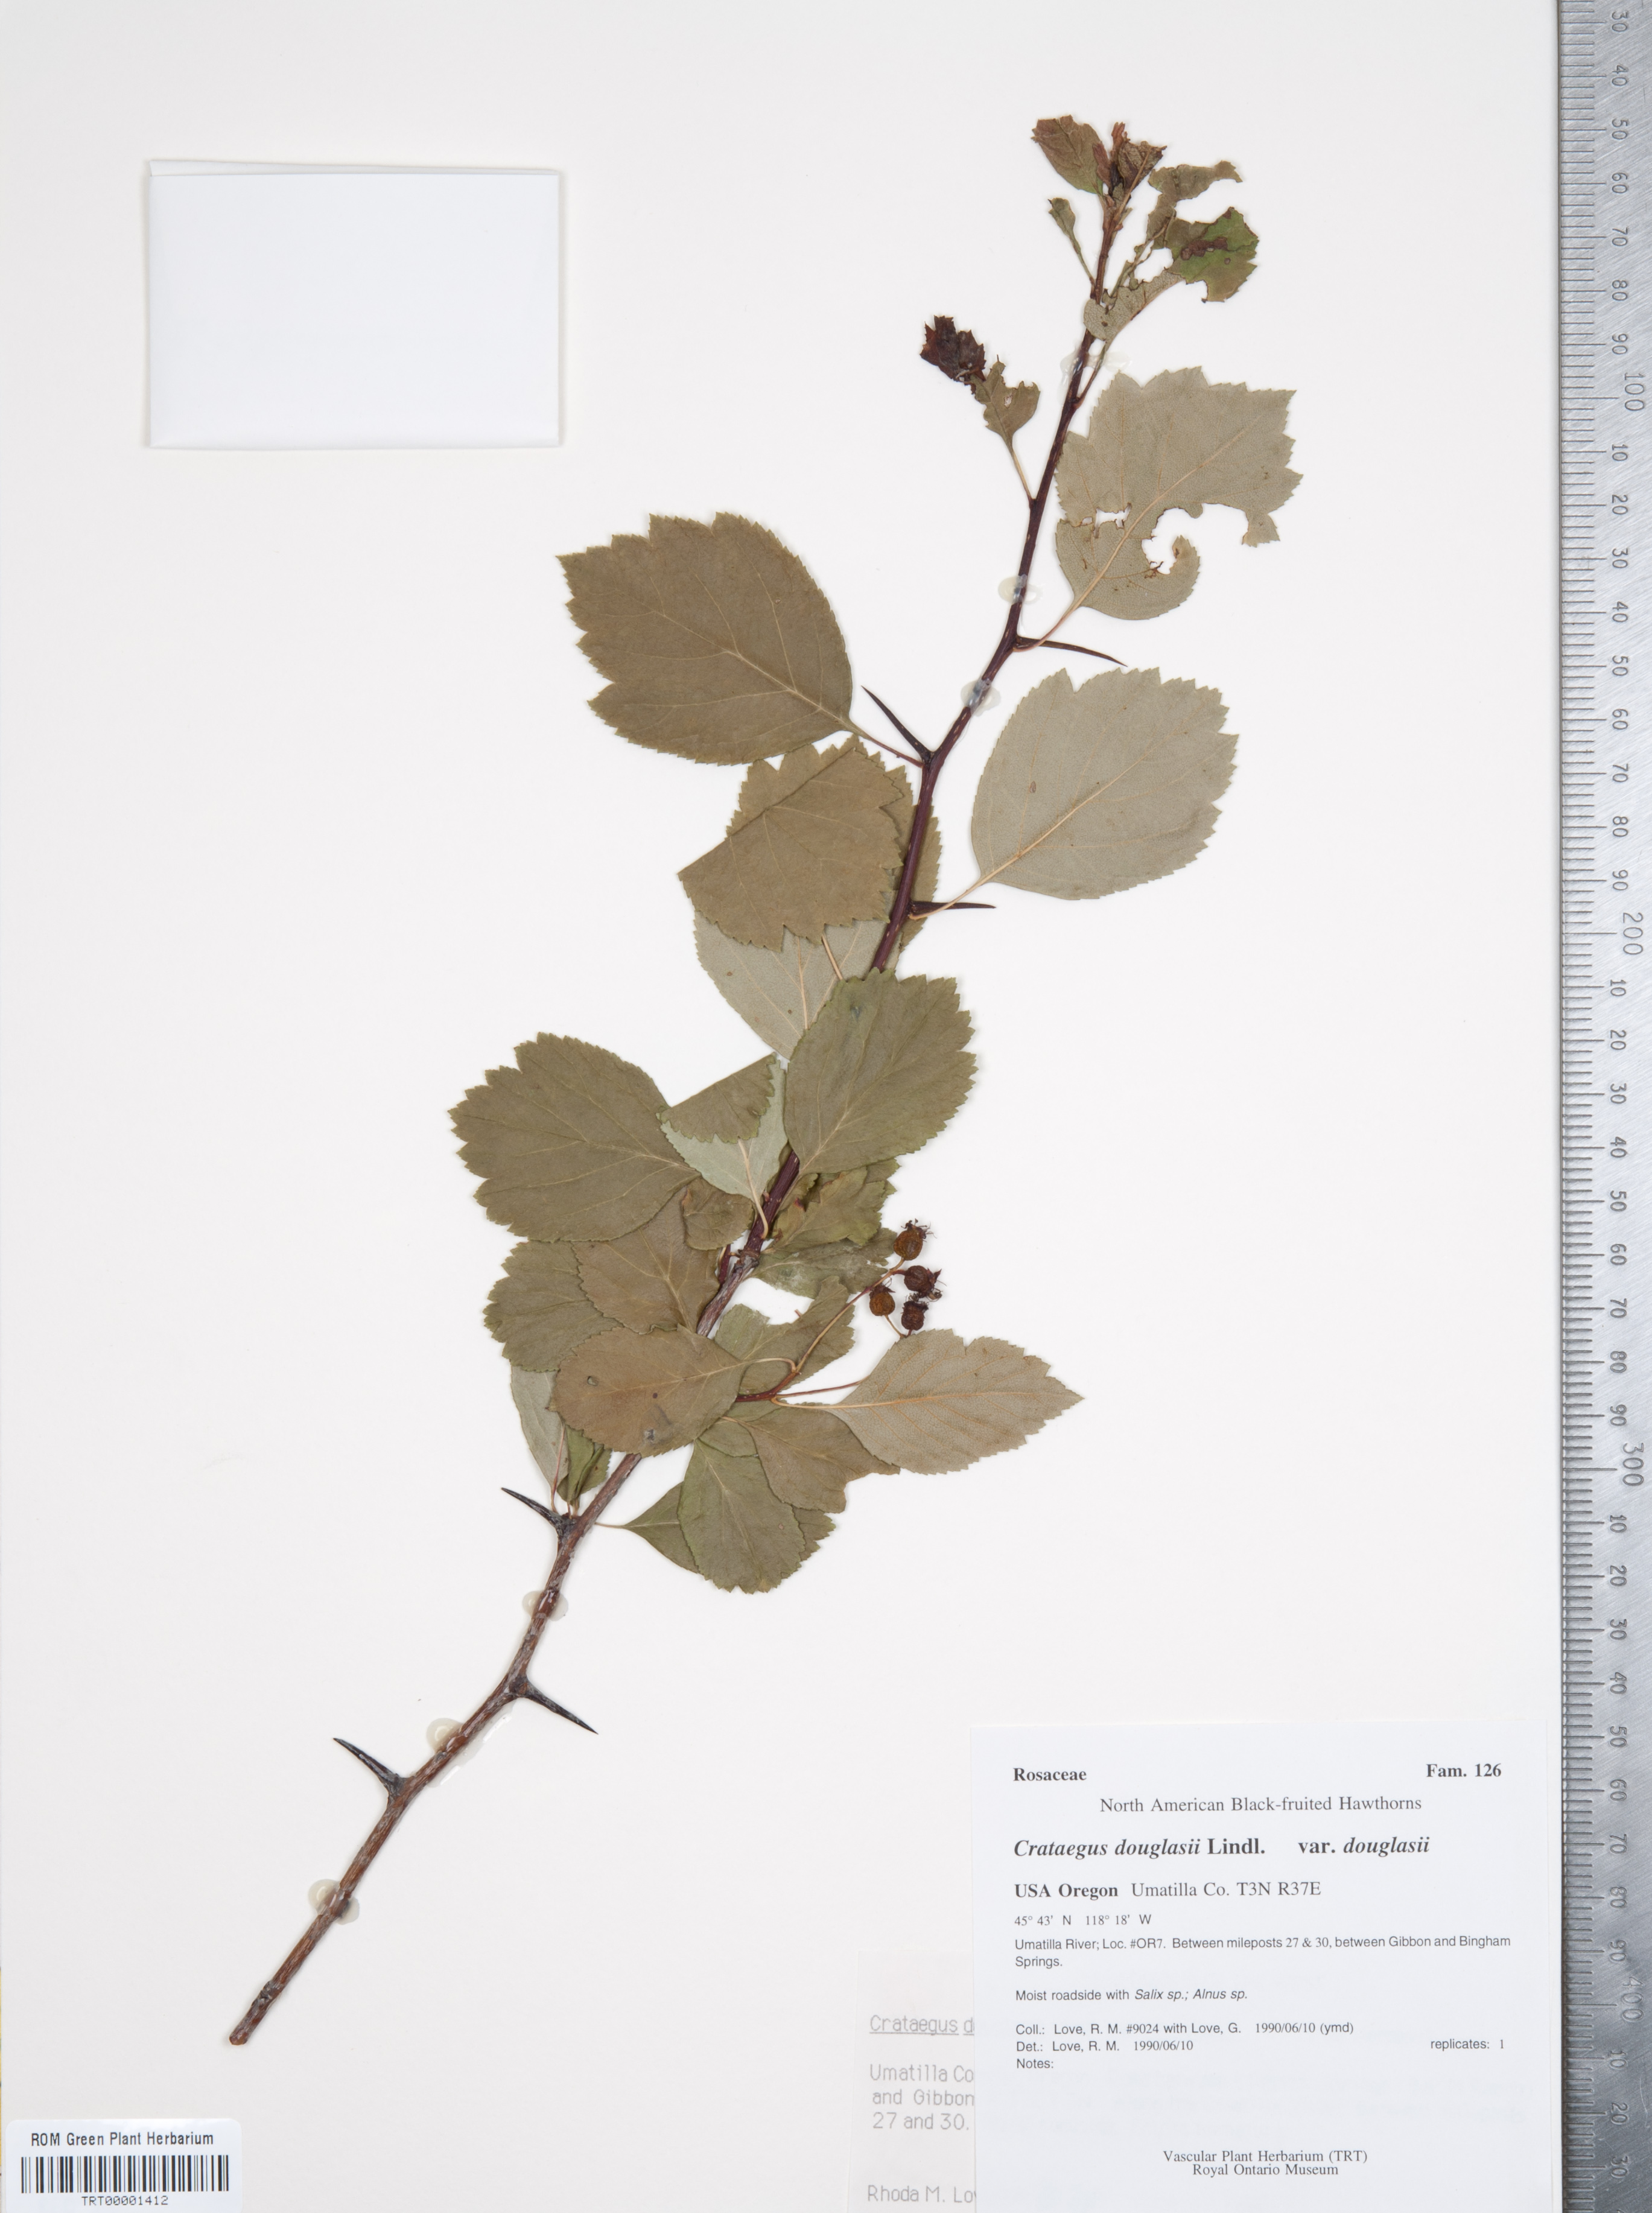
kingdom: Plantae
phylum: Tracheophyta
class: Magnoliopsida
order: Rosales
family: Rosaceae
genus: Crataegus
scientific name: Crataegus douglasii
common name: Black hawthorn
